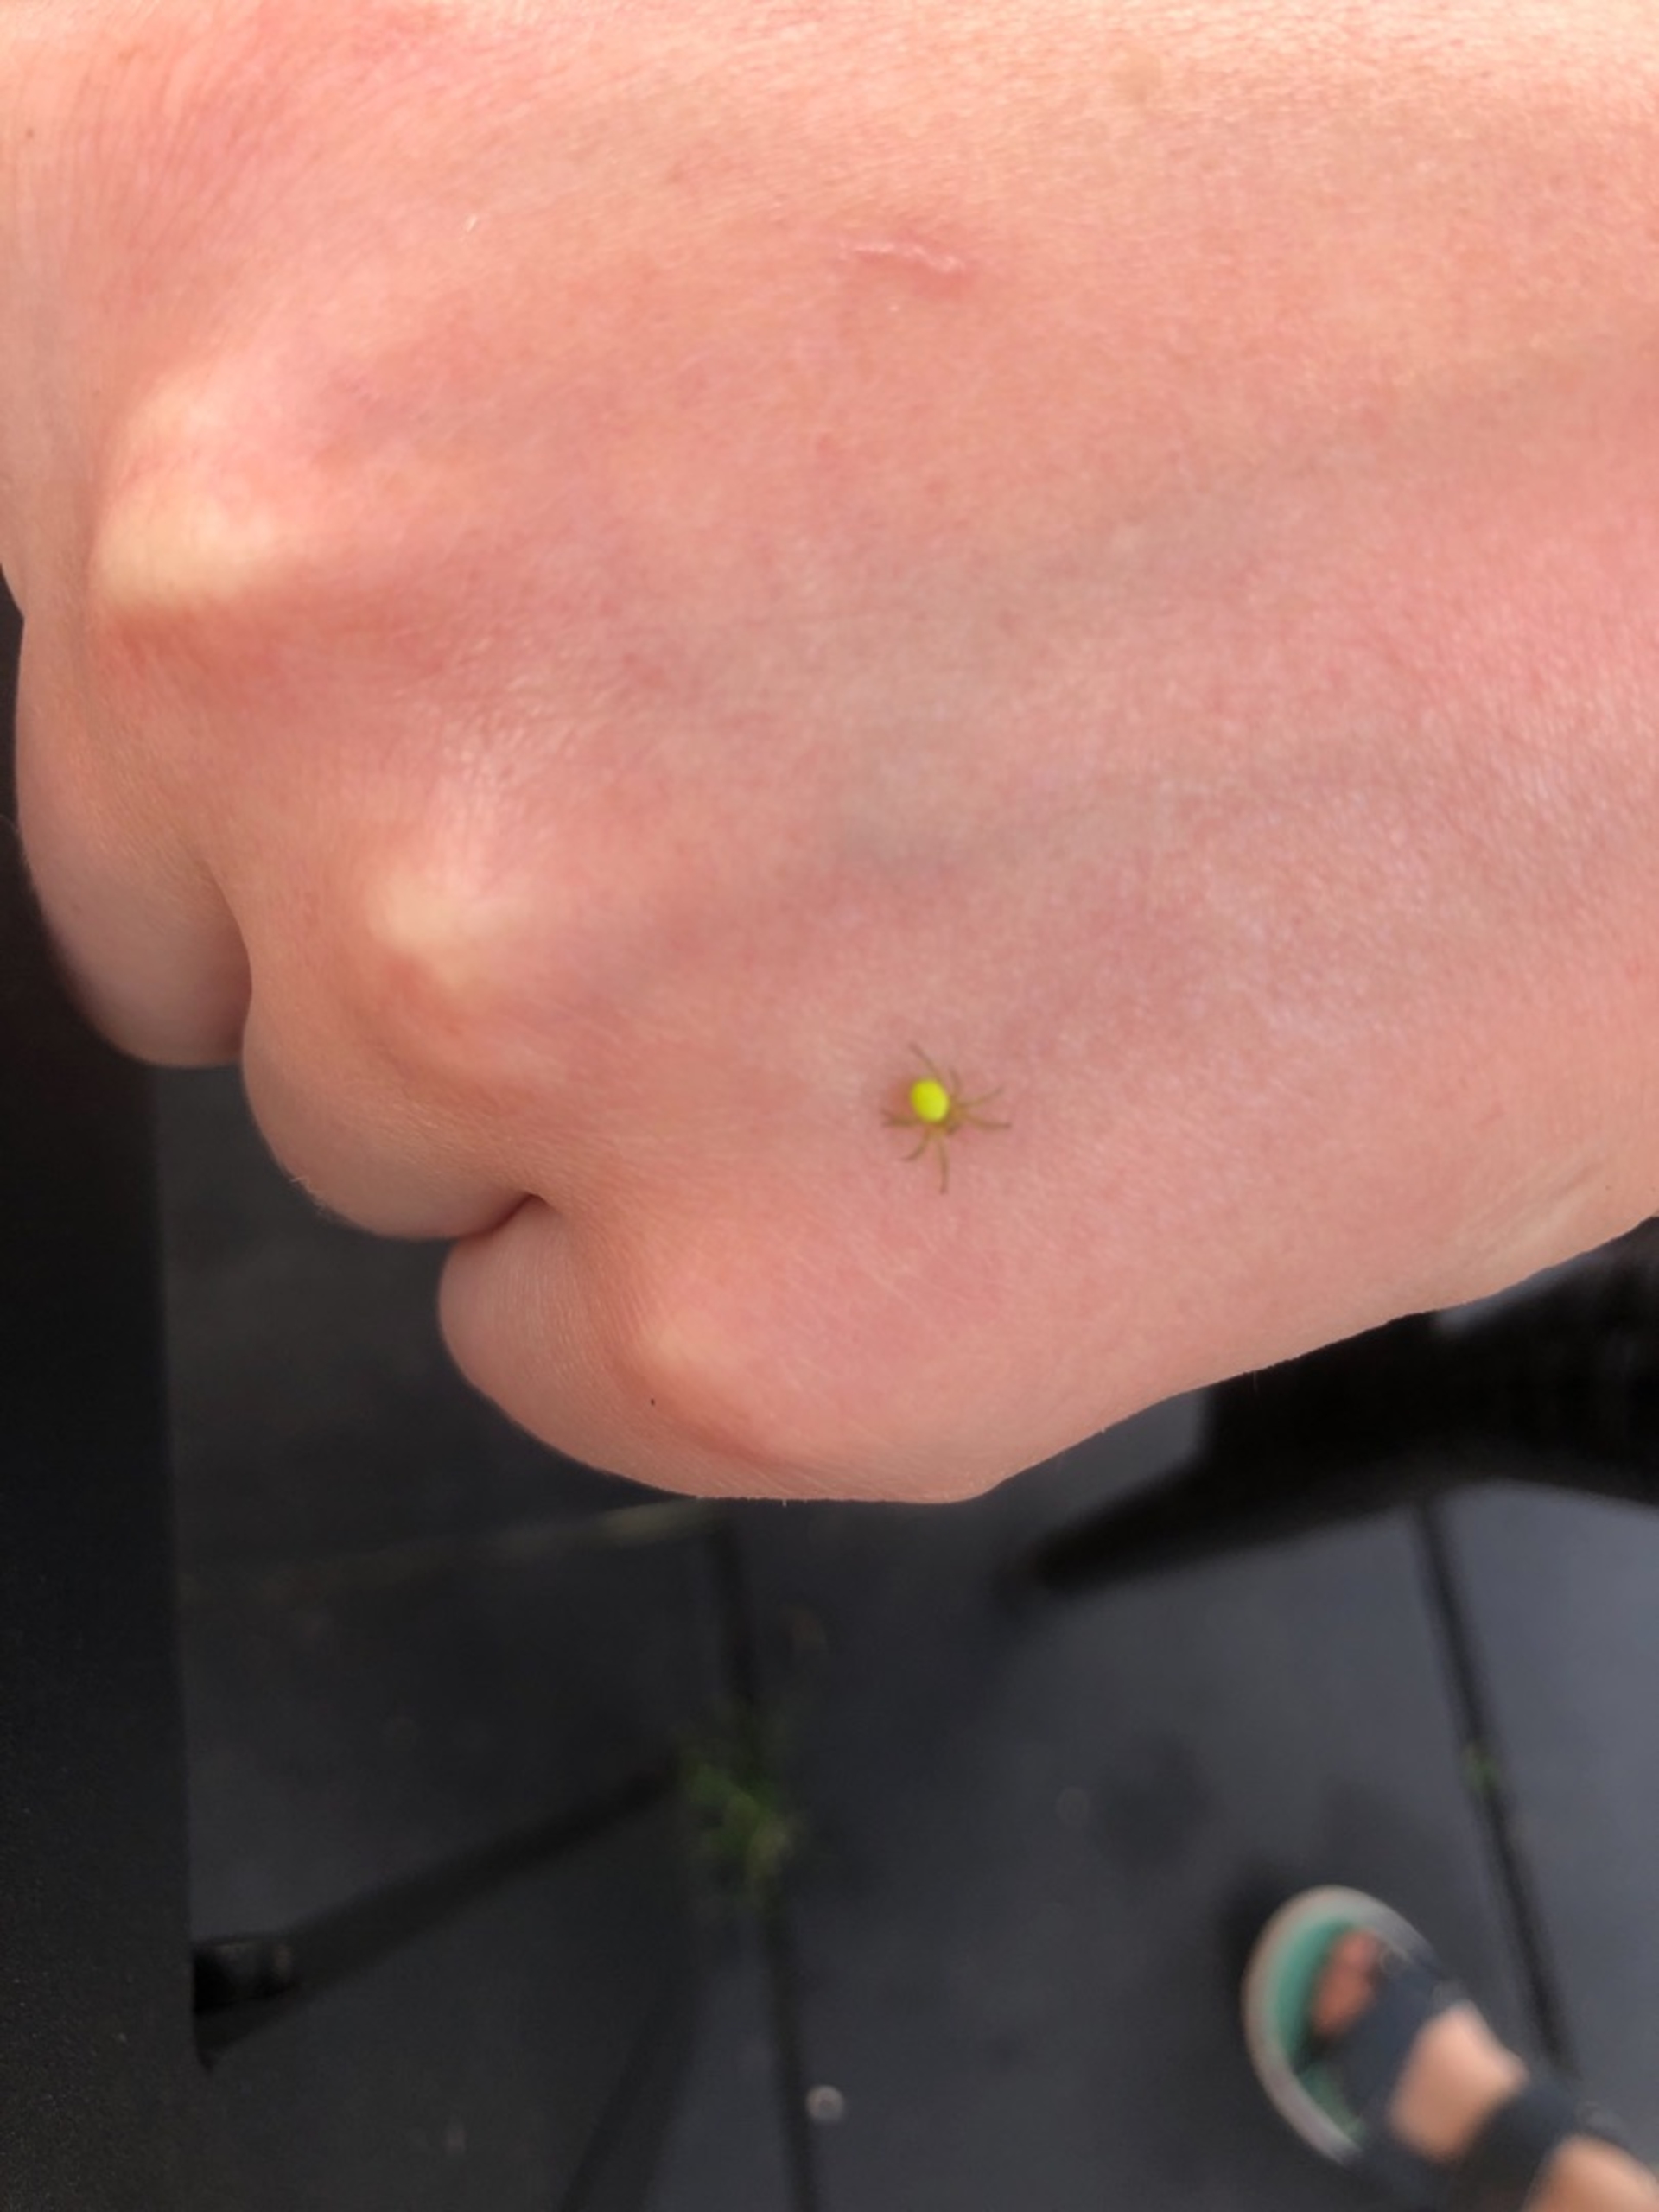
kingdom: Animalia
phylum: Arthropoda
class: Arachnida
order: Araneae
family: Araneidae
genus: Araniella
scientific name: Araniella
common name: Agurkeedderkopslægten
